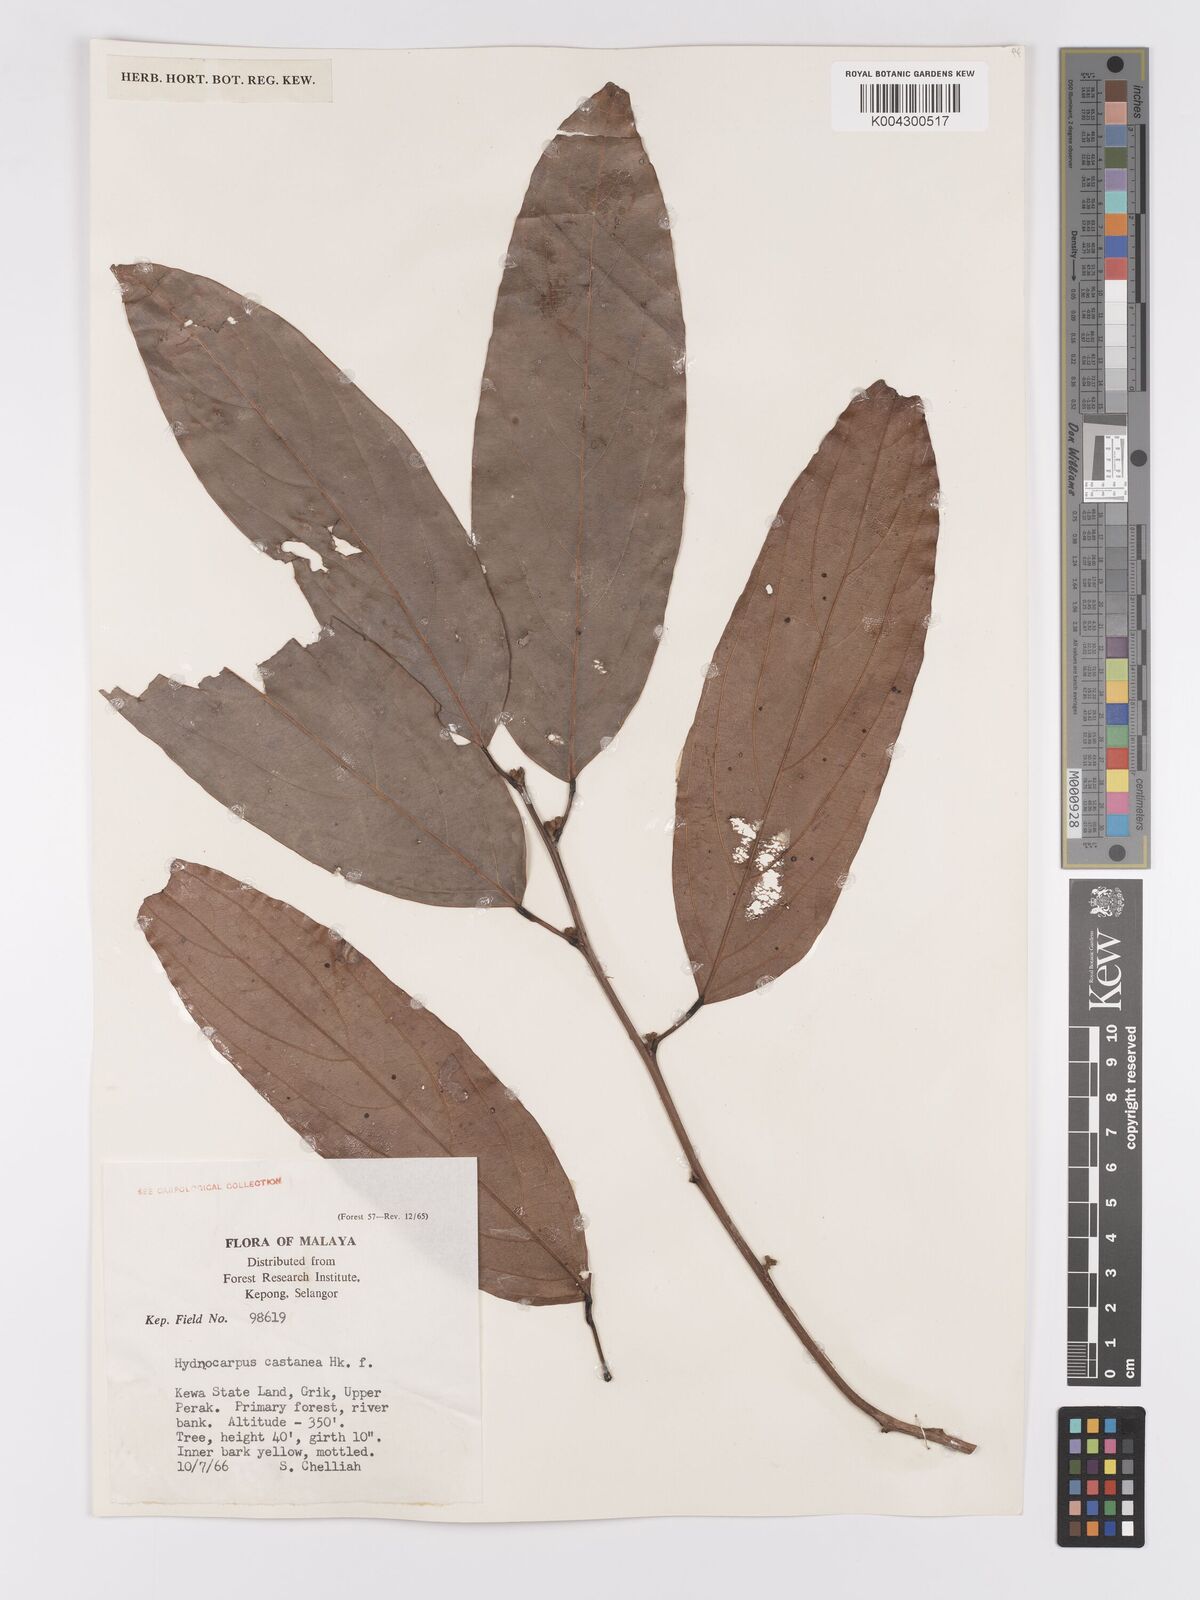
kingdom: Plantae
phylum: Tracheophyta
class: Magnoliopsida
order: Malpighiales
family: Achariaceae
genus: Hydnocarpus
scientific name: Hydnocarpus castaneus
